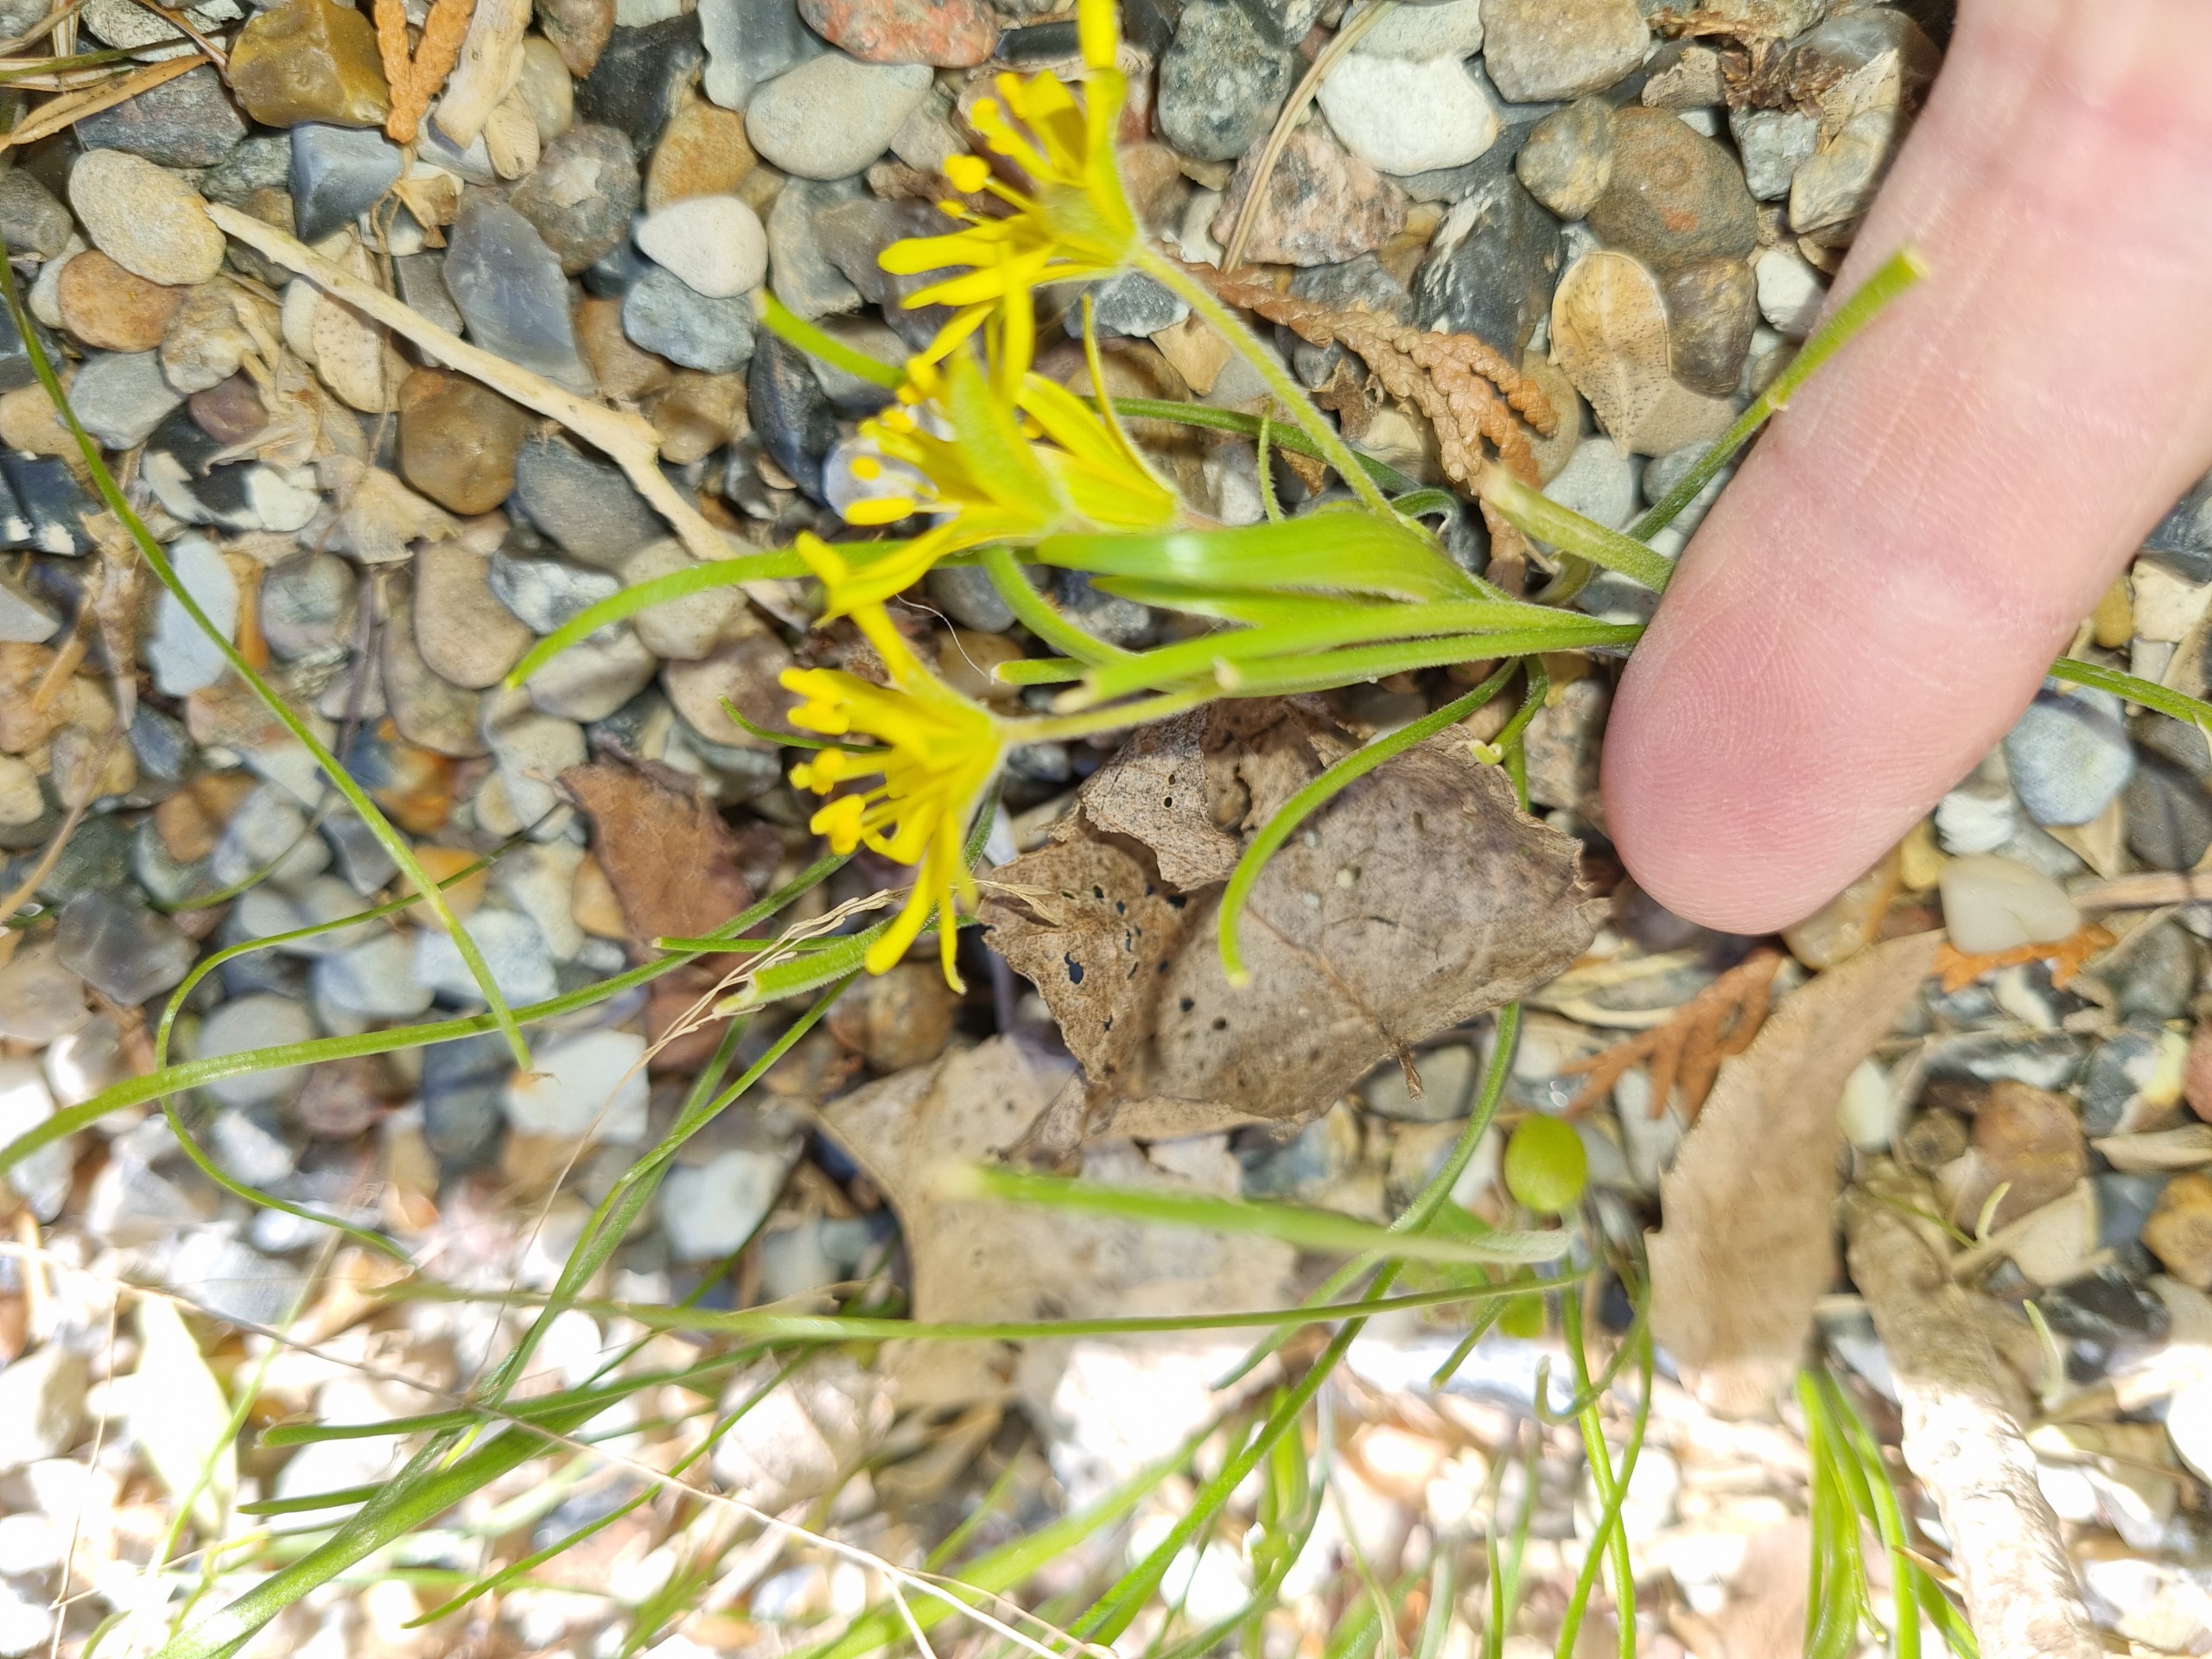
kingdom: Plantae
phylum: Tracheophyta
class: Liliopsida
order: Liliales
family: Liliaceae
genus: Gagea
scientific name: Gagea villosa
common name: Ager-guldstjerne
